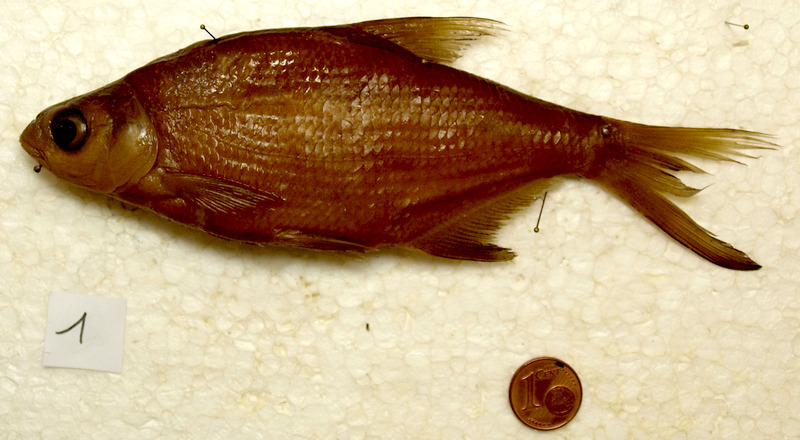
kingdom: Animalia
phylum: Chordata
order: Cypriniformes
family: Cyprinidae
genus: Abramis
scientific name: Abramis brama
